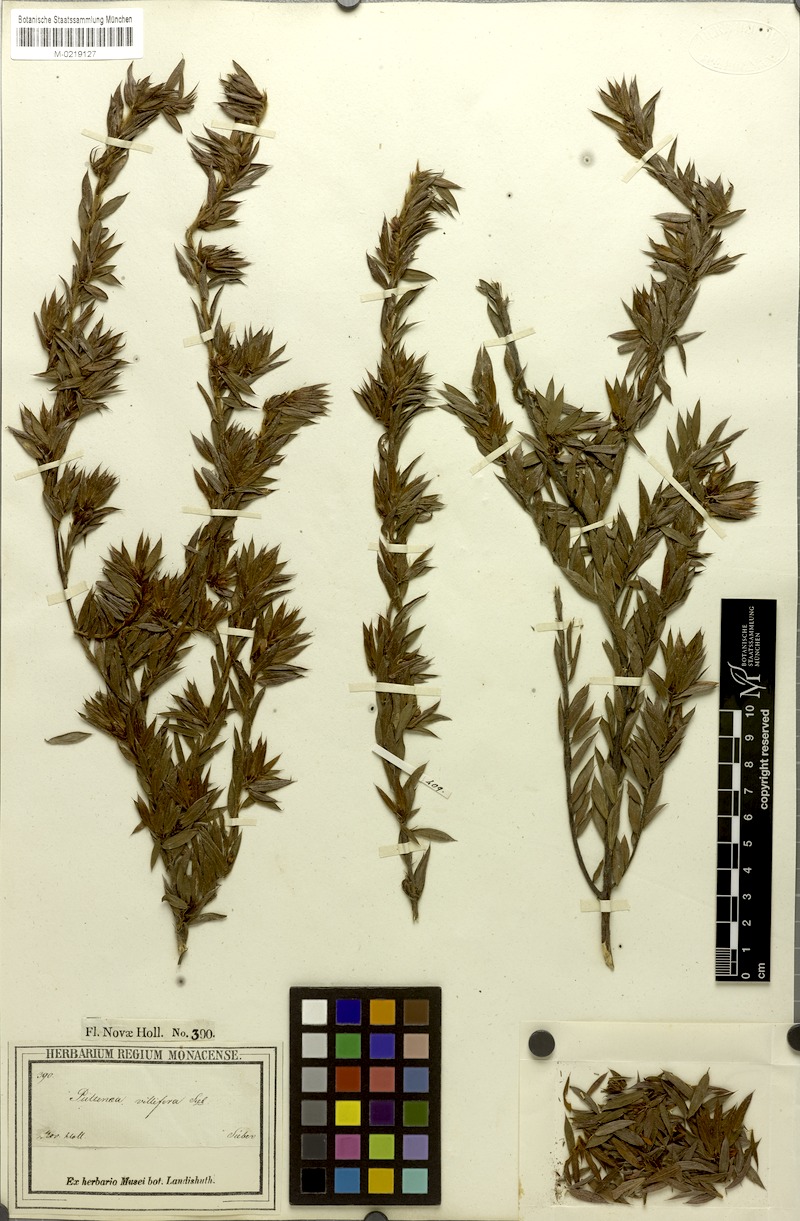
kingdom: Plantae
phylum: Tracheophyta
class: Magnoliopsida
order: Fabales
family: Fabaceae
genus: Pultenaea
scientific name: Pultenaea villifera
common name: Yellow bush-pea
